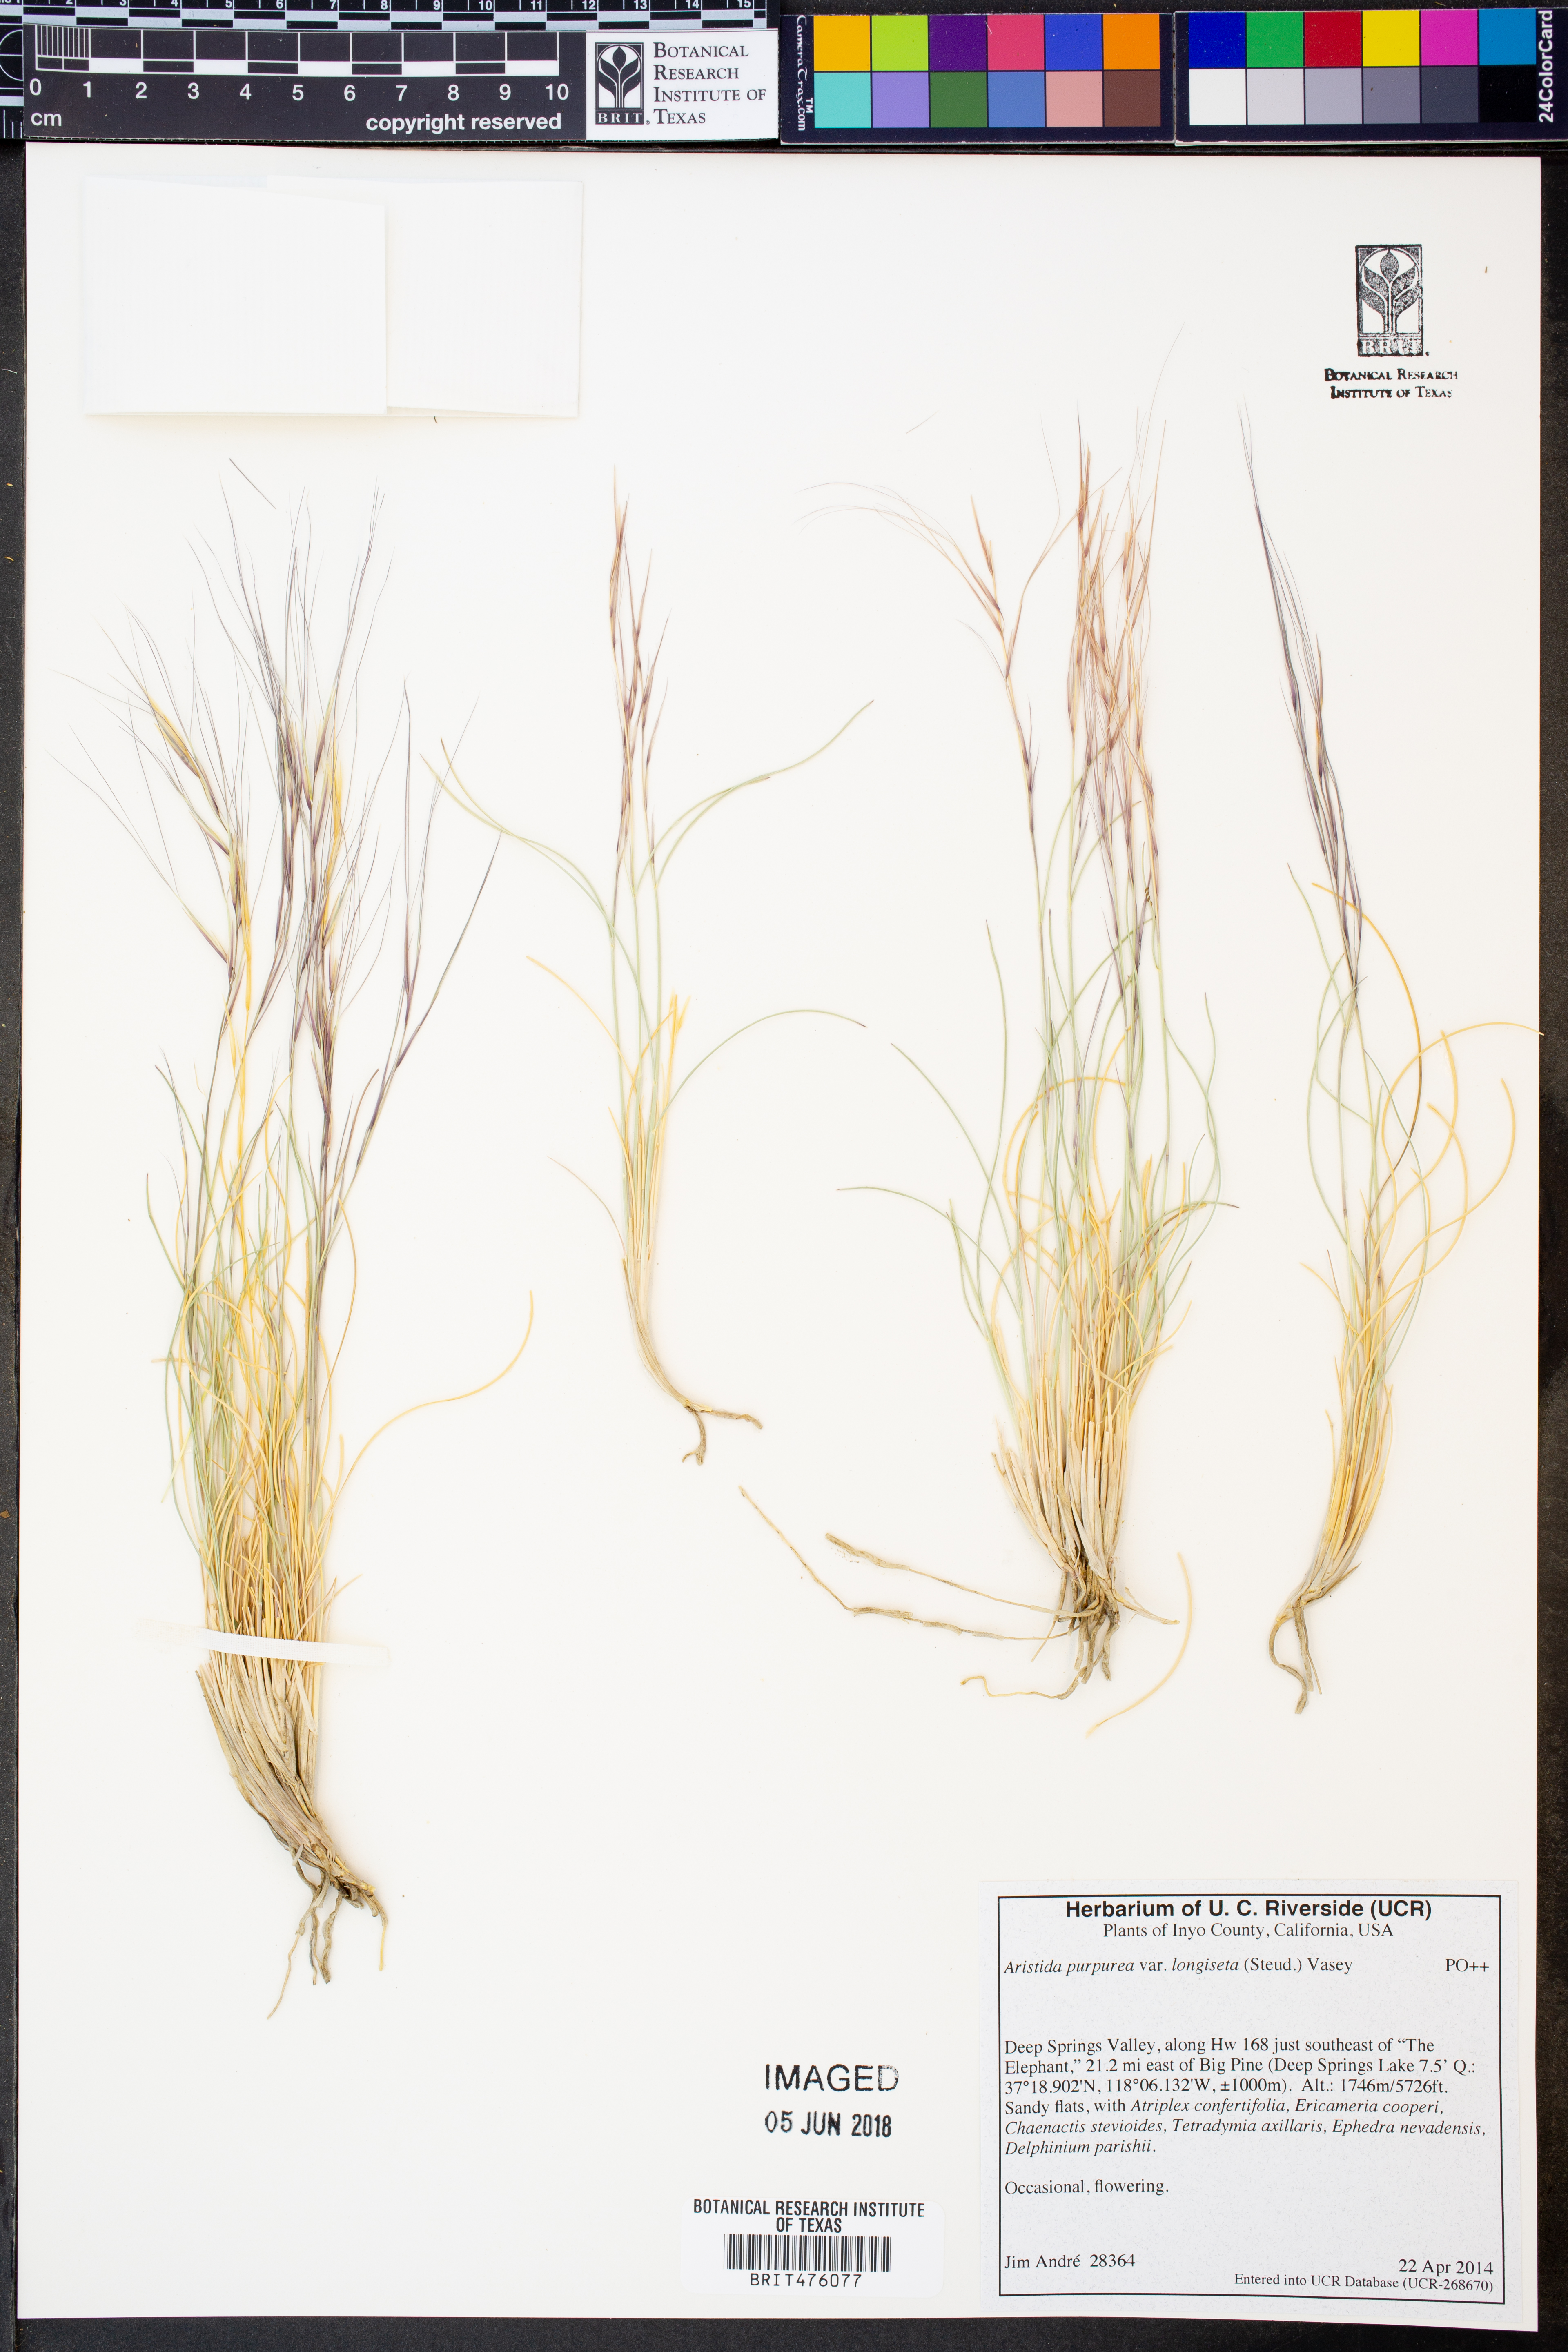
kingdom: Plantae
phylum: Tracheophyta
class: Liliopsida
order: Poales
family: Poaceae
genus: Aristida
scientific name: Aristida longiseta
